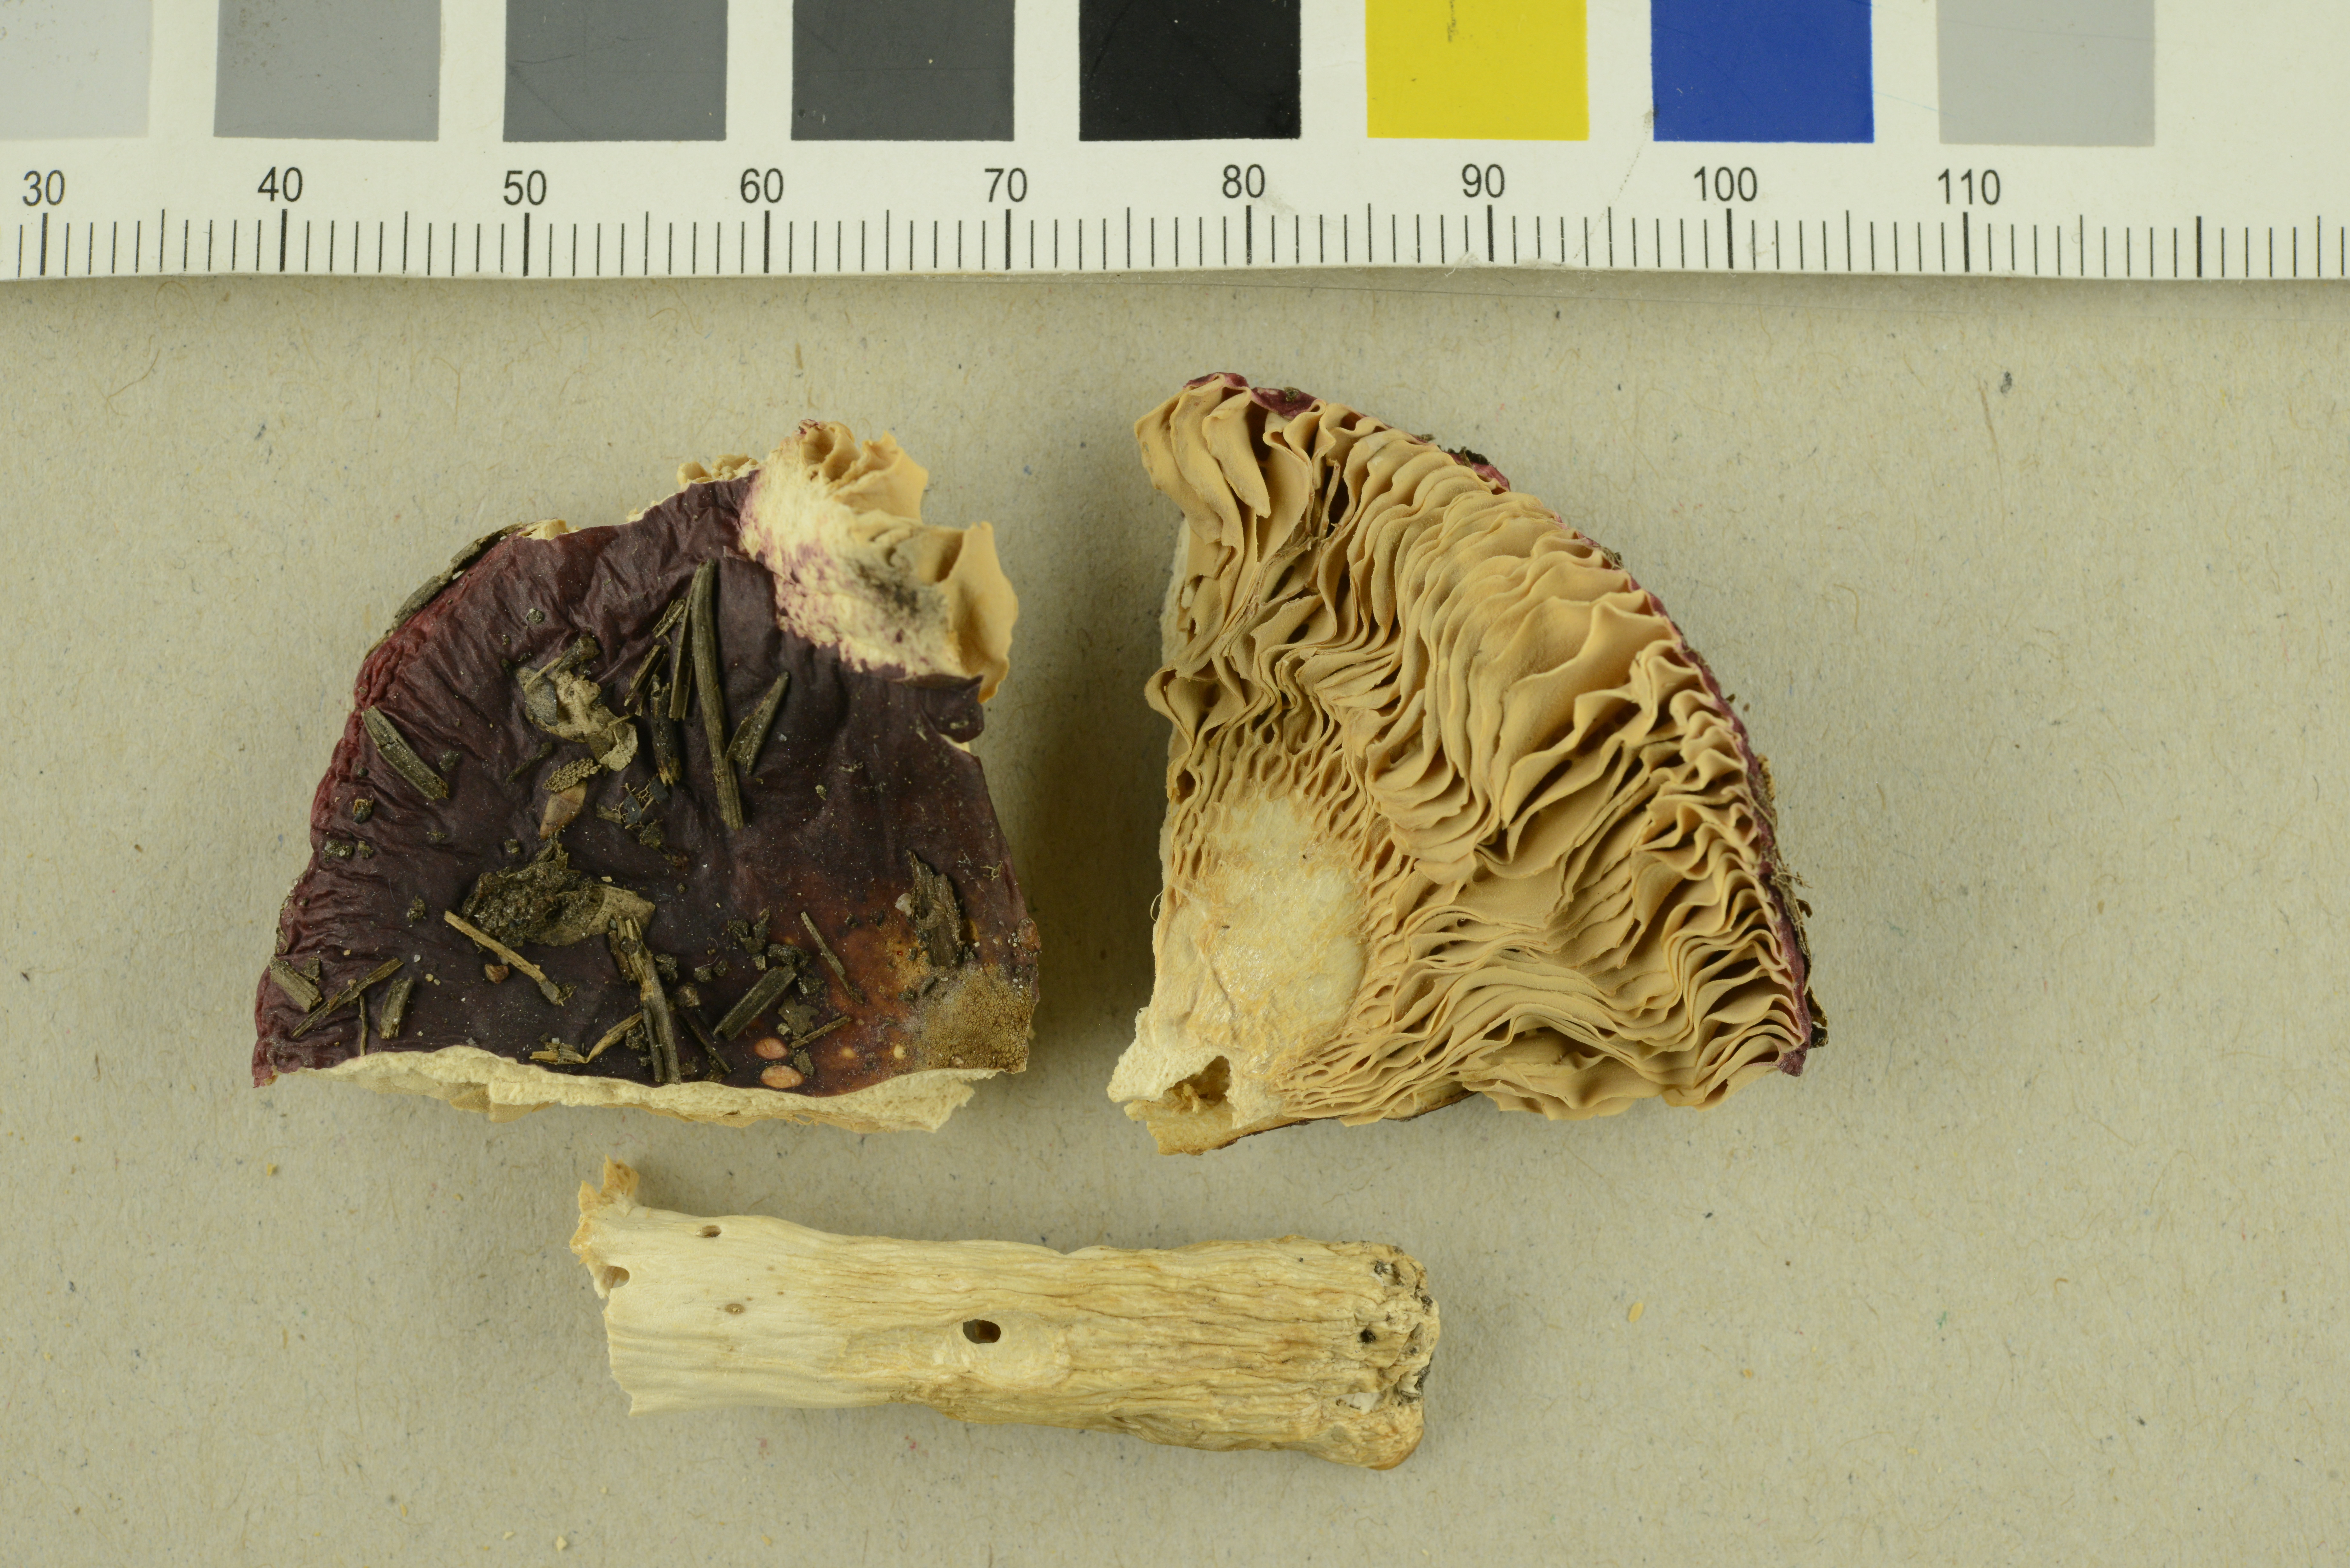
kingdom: Fungi
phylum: Basidiomycota
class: Agaricomycetes
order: Russulales
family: Russulaceae
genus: Russula
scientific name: Russula
